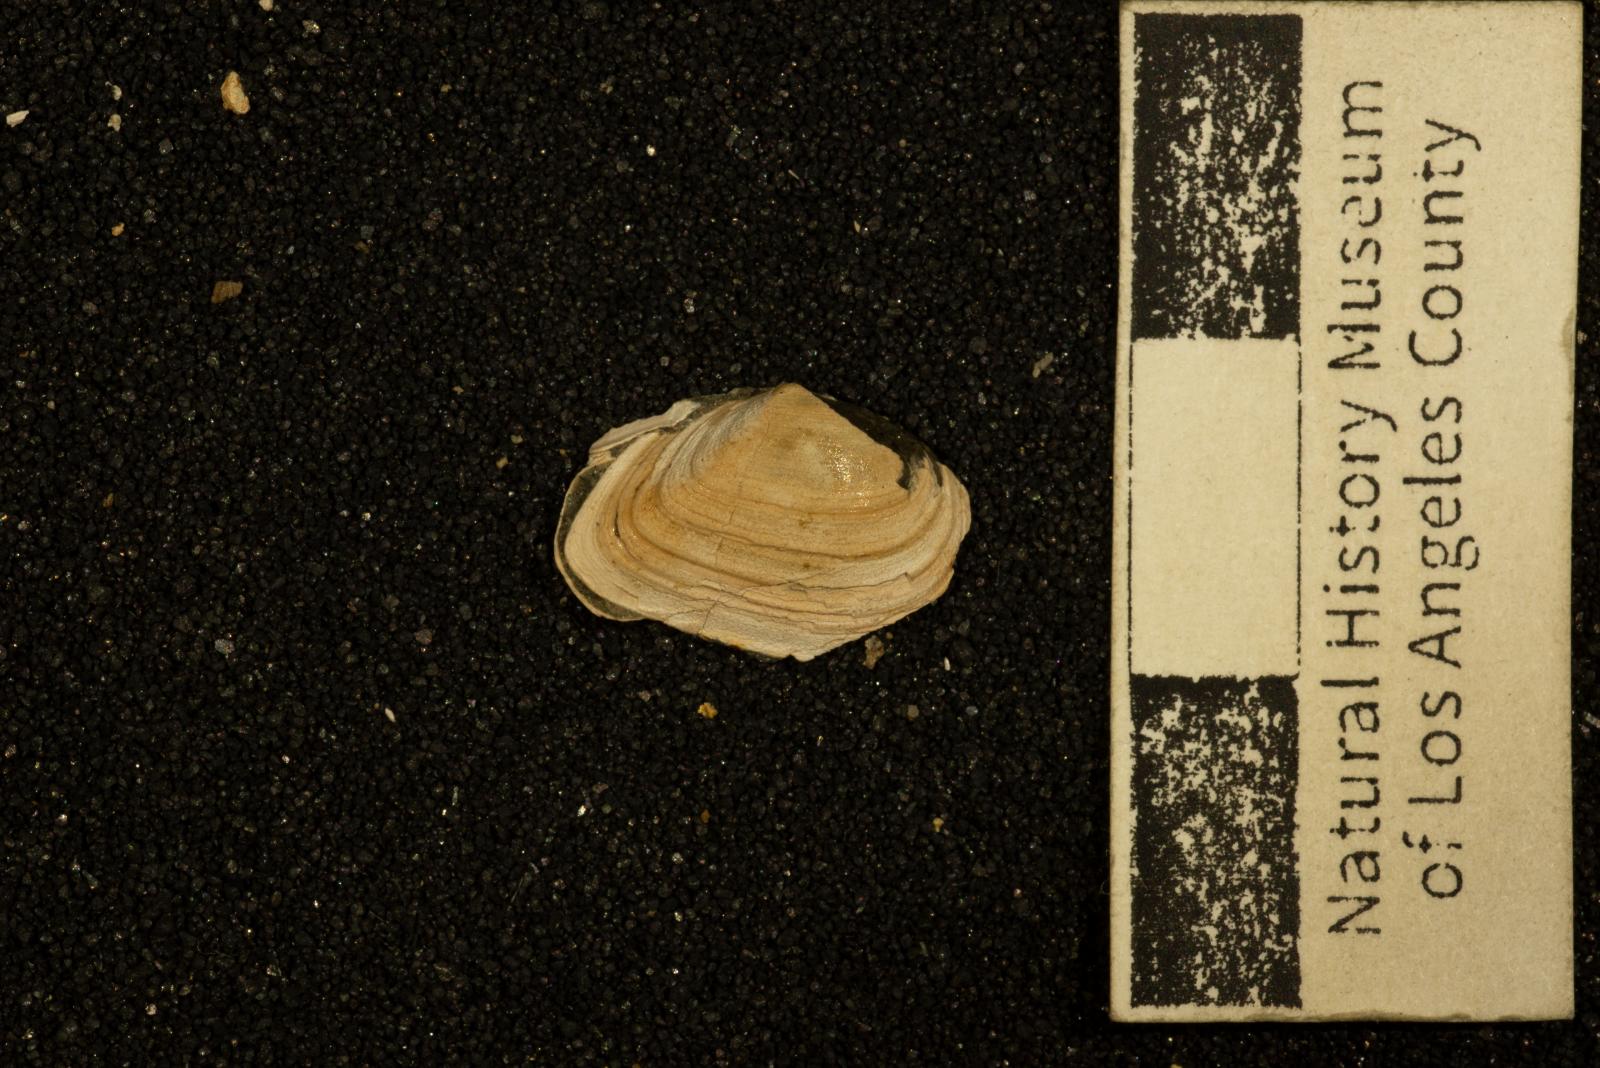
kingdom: Animalia
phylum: Mollusca
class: Bivalvia
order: Arcida
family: Arcidae
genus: Linter
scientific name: Linter
